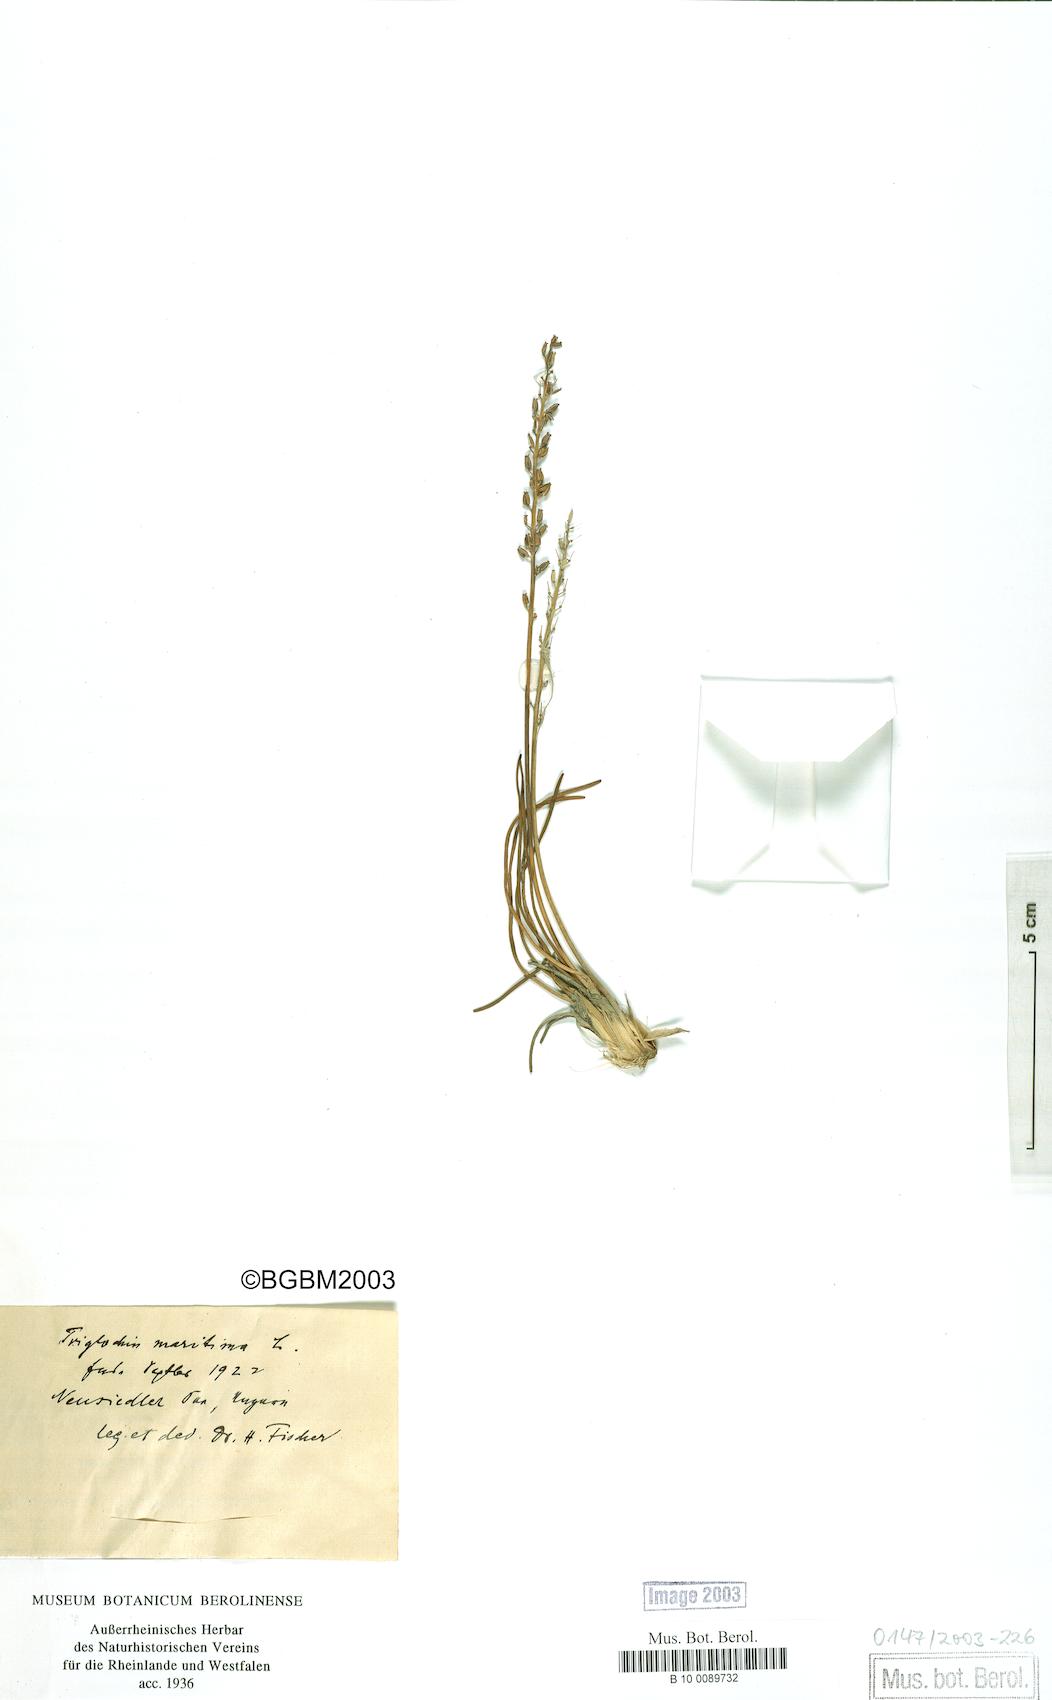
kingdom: Plantae
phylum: Tracheophyta
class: Liliopsida
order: Alismatales
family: Juncaginaceae
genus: Triglochin
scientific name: Triglochin maritima
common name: Sea arrowgrass
